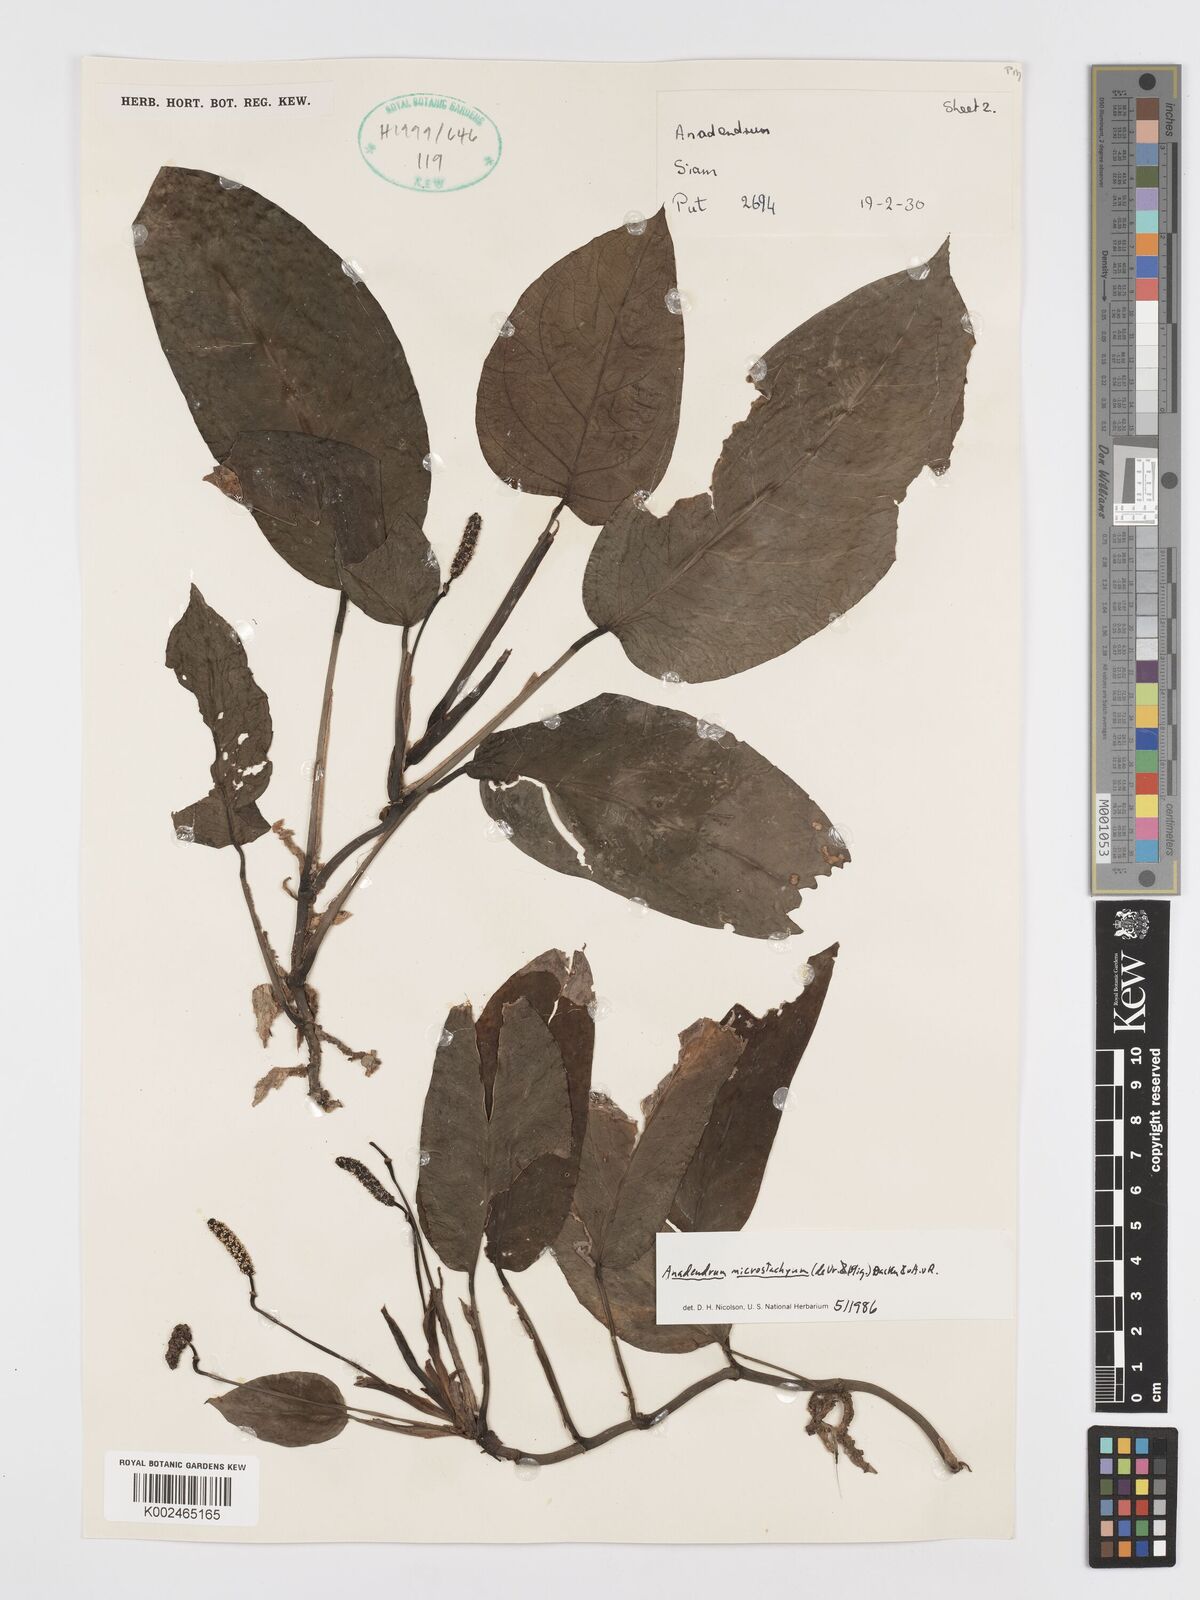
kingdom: Plantae
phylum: Tracheophyta
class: Liliopsida
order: Alismatales
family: Araceae
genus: Anadendrum
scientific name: Anadendrum microstachyum
